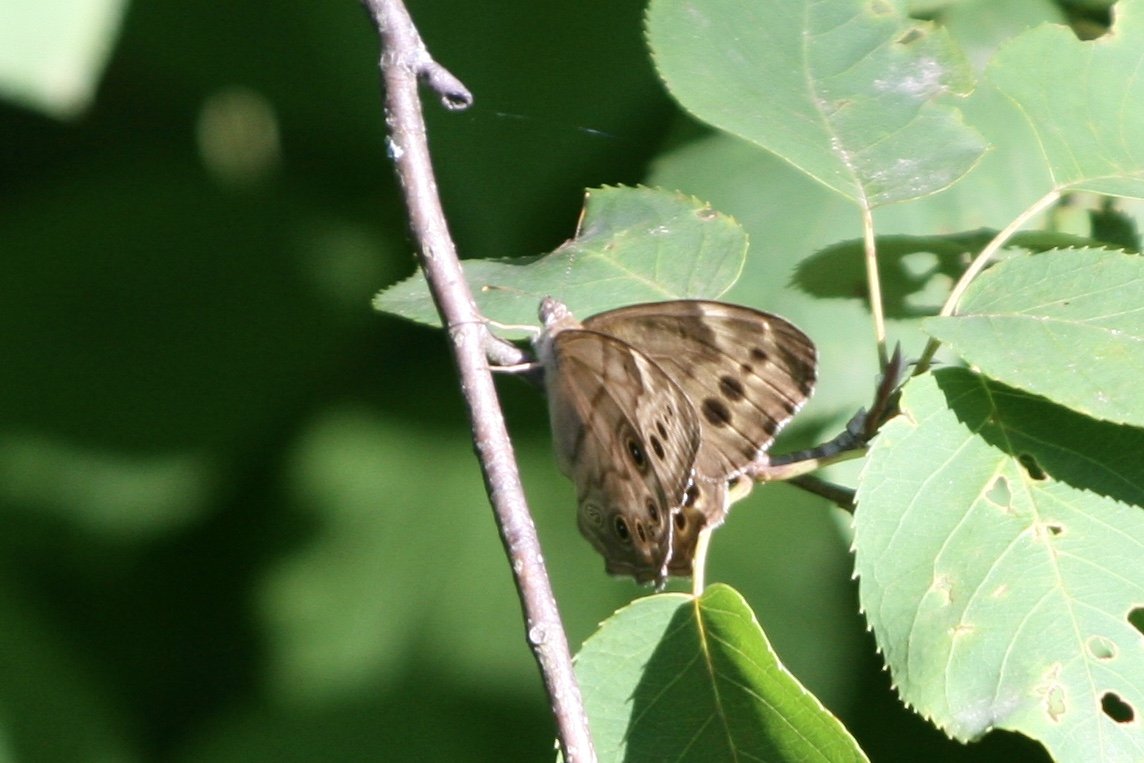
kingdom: Animalia
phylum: Arthropoda
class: Insecta
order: Lepidoptera
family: Nymphalidae
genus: Lethe
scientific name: Lethe
